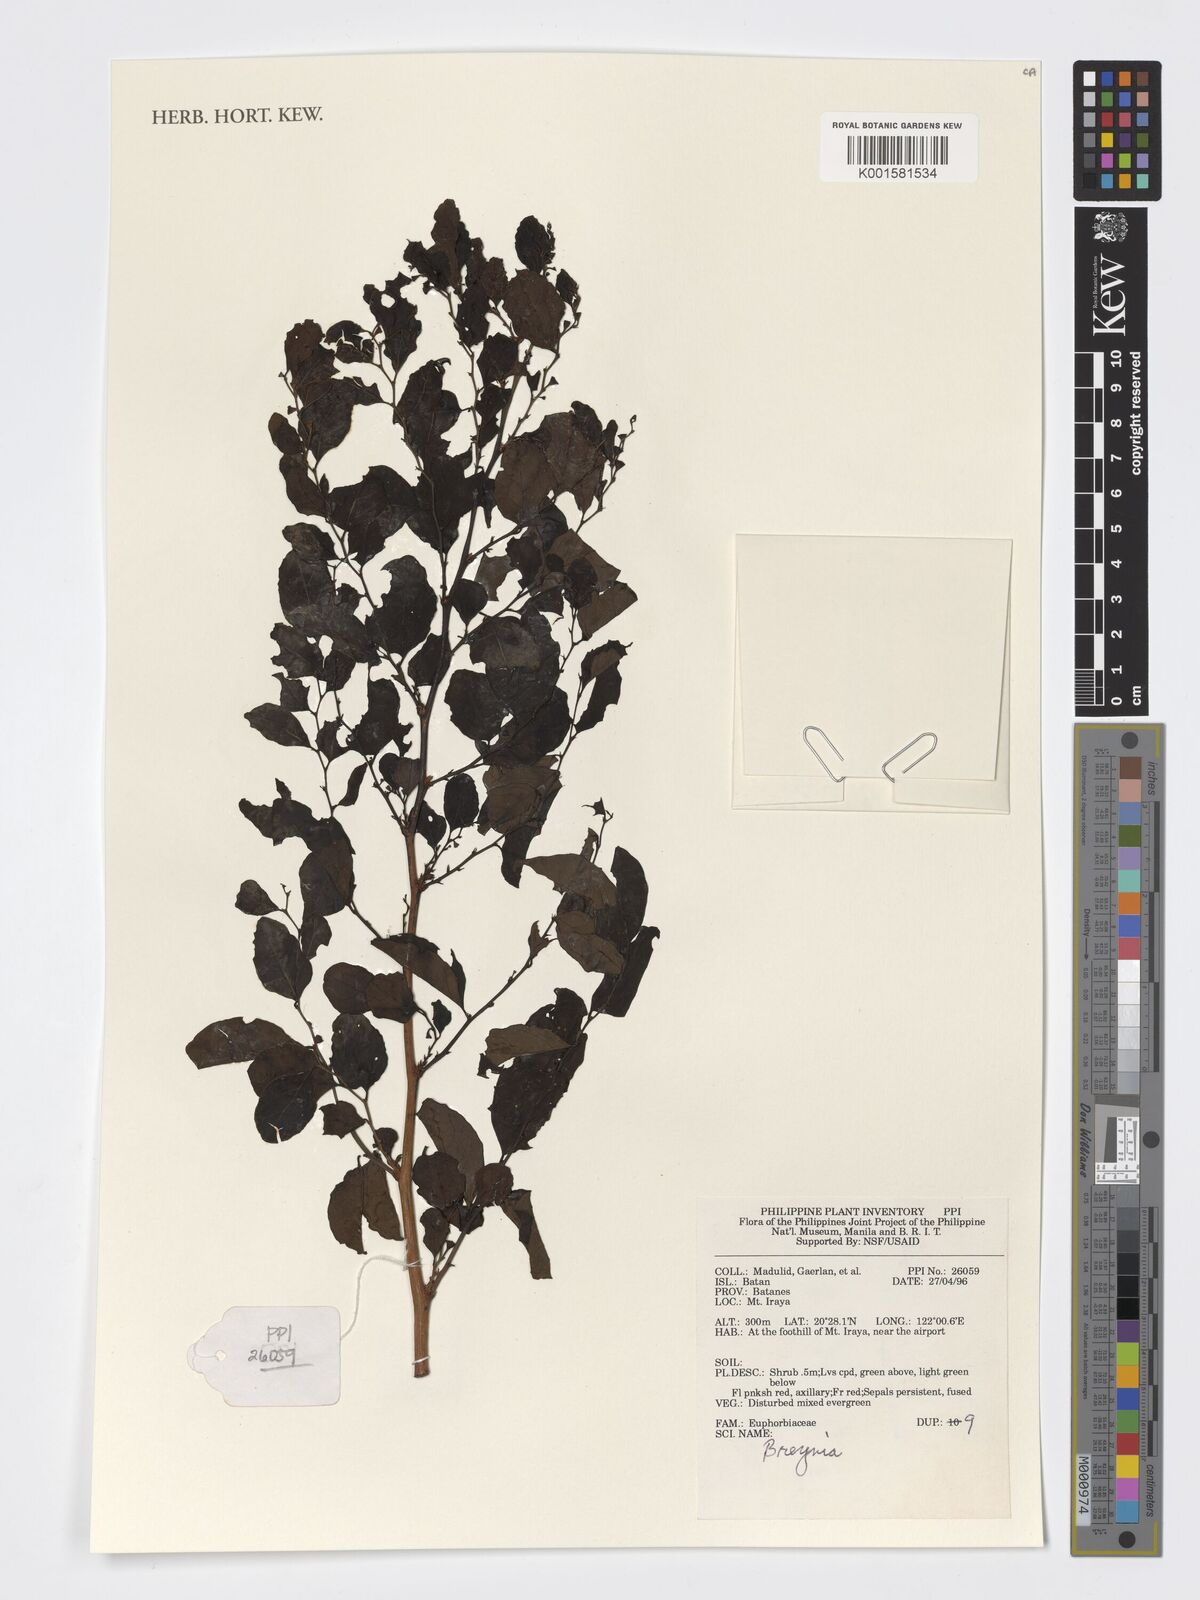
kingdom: Plantae
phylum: Tracheophyta
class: Magnoliopsida
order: Malpighiales
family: Phyllanthaceae
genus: Breynia
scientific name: Breynia
